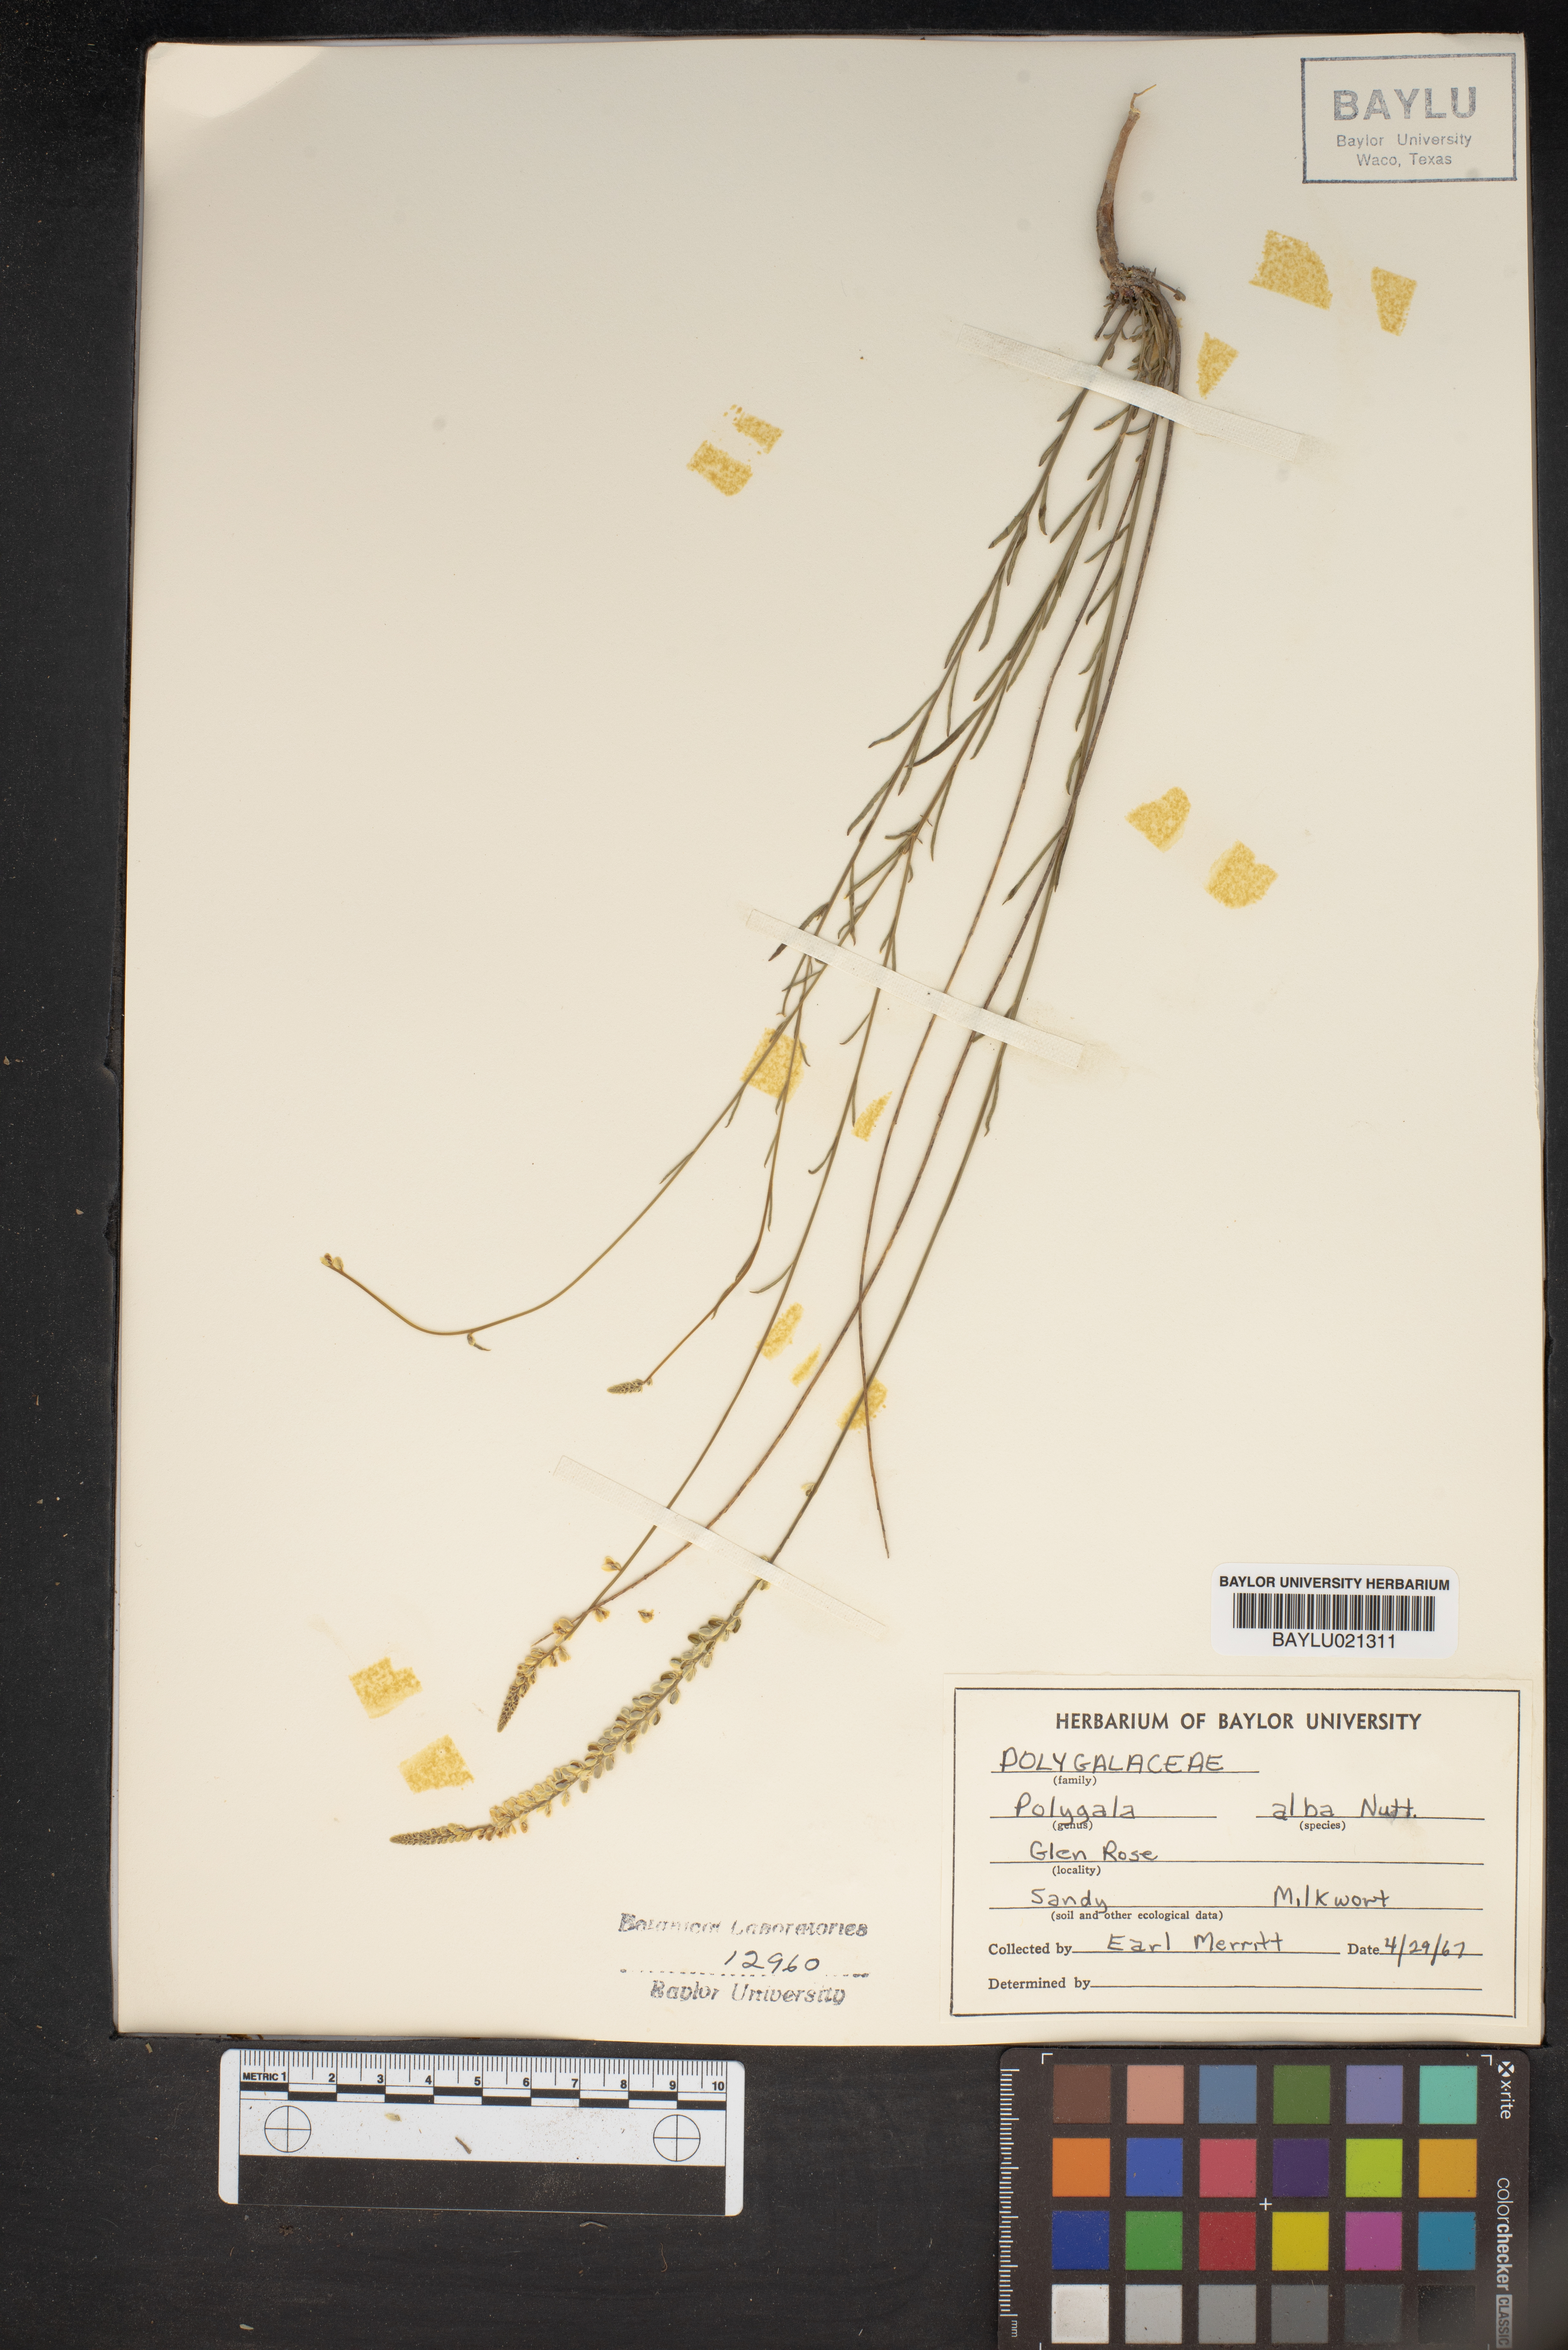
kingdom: Plantae
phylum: Tracheophyta
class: Magnoliopsida
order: Fabales
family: Polygalaceae
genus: Polygala
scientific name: Polygala alba
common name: White milkwort
